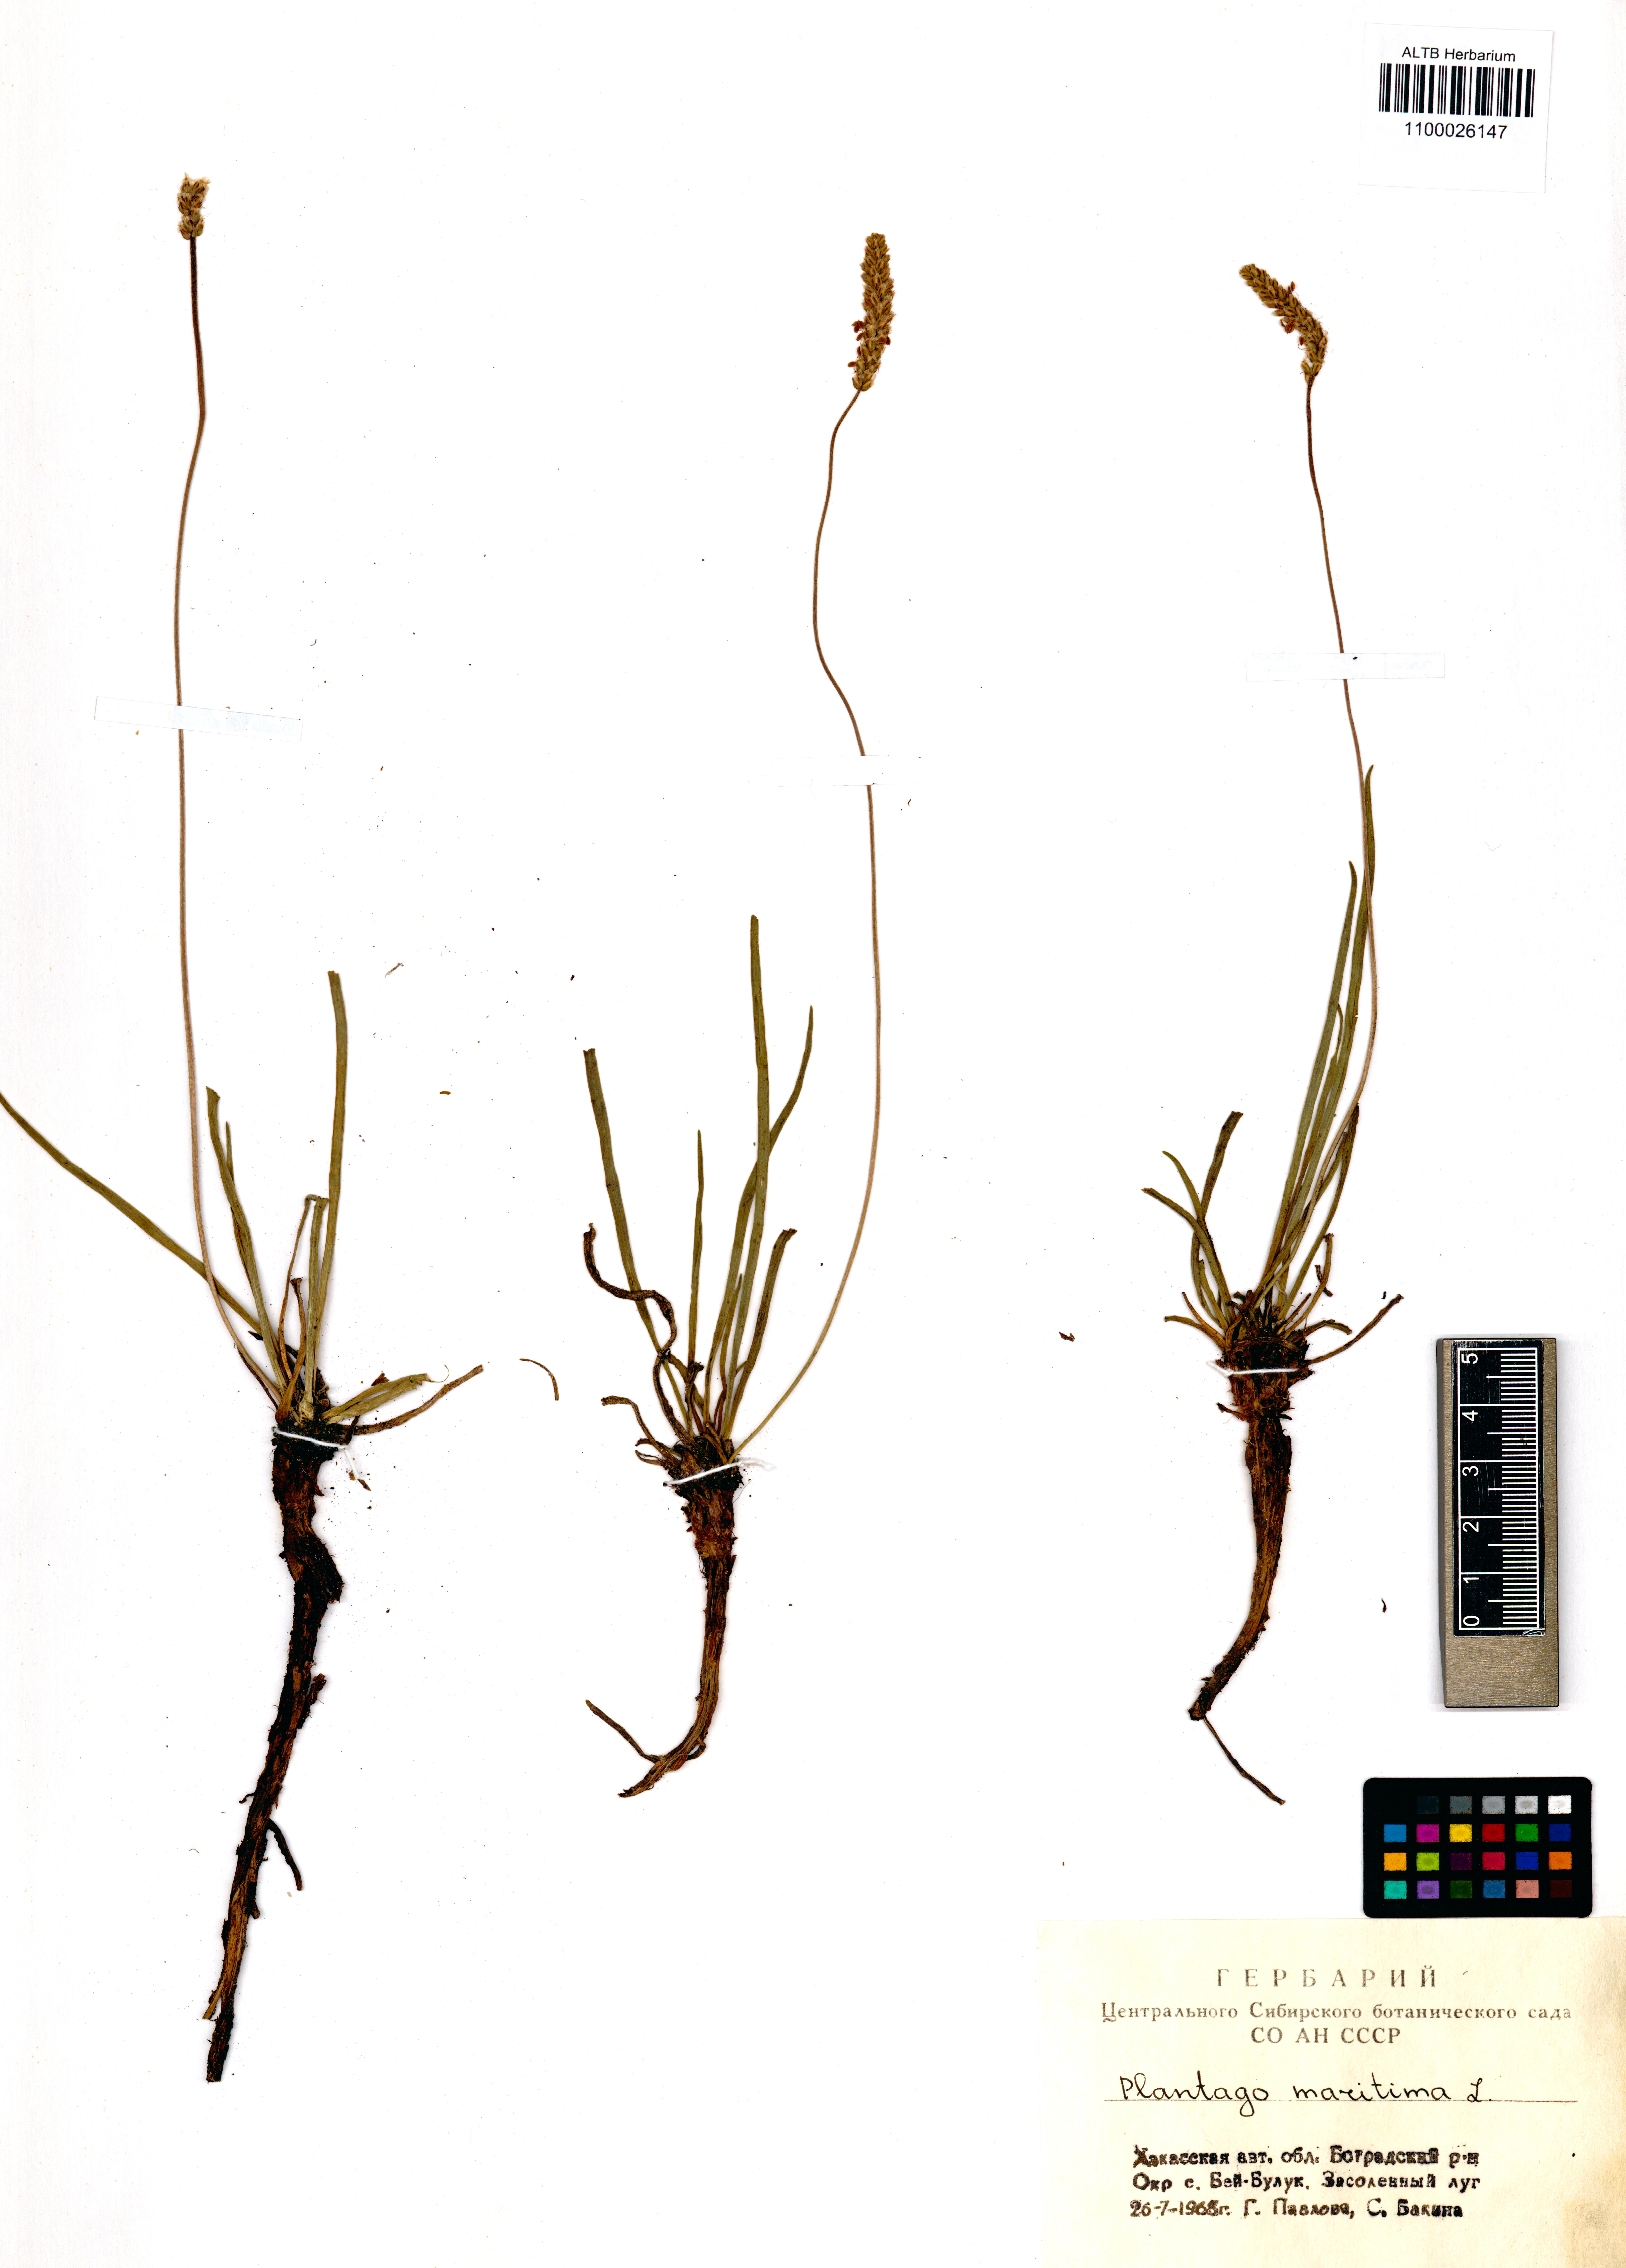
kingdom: Plantae
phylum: Tracheophyta
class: Magnoliopsida
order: Lamiales
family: Plantaginaceae
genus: Plantago
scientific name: Plantago maritima
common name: Sea plantain
